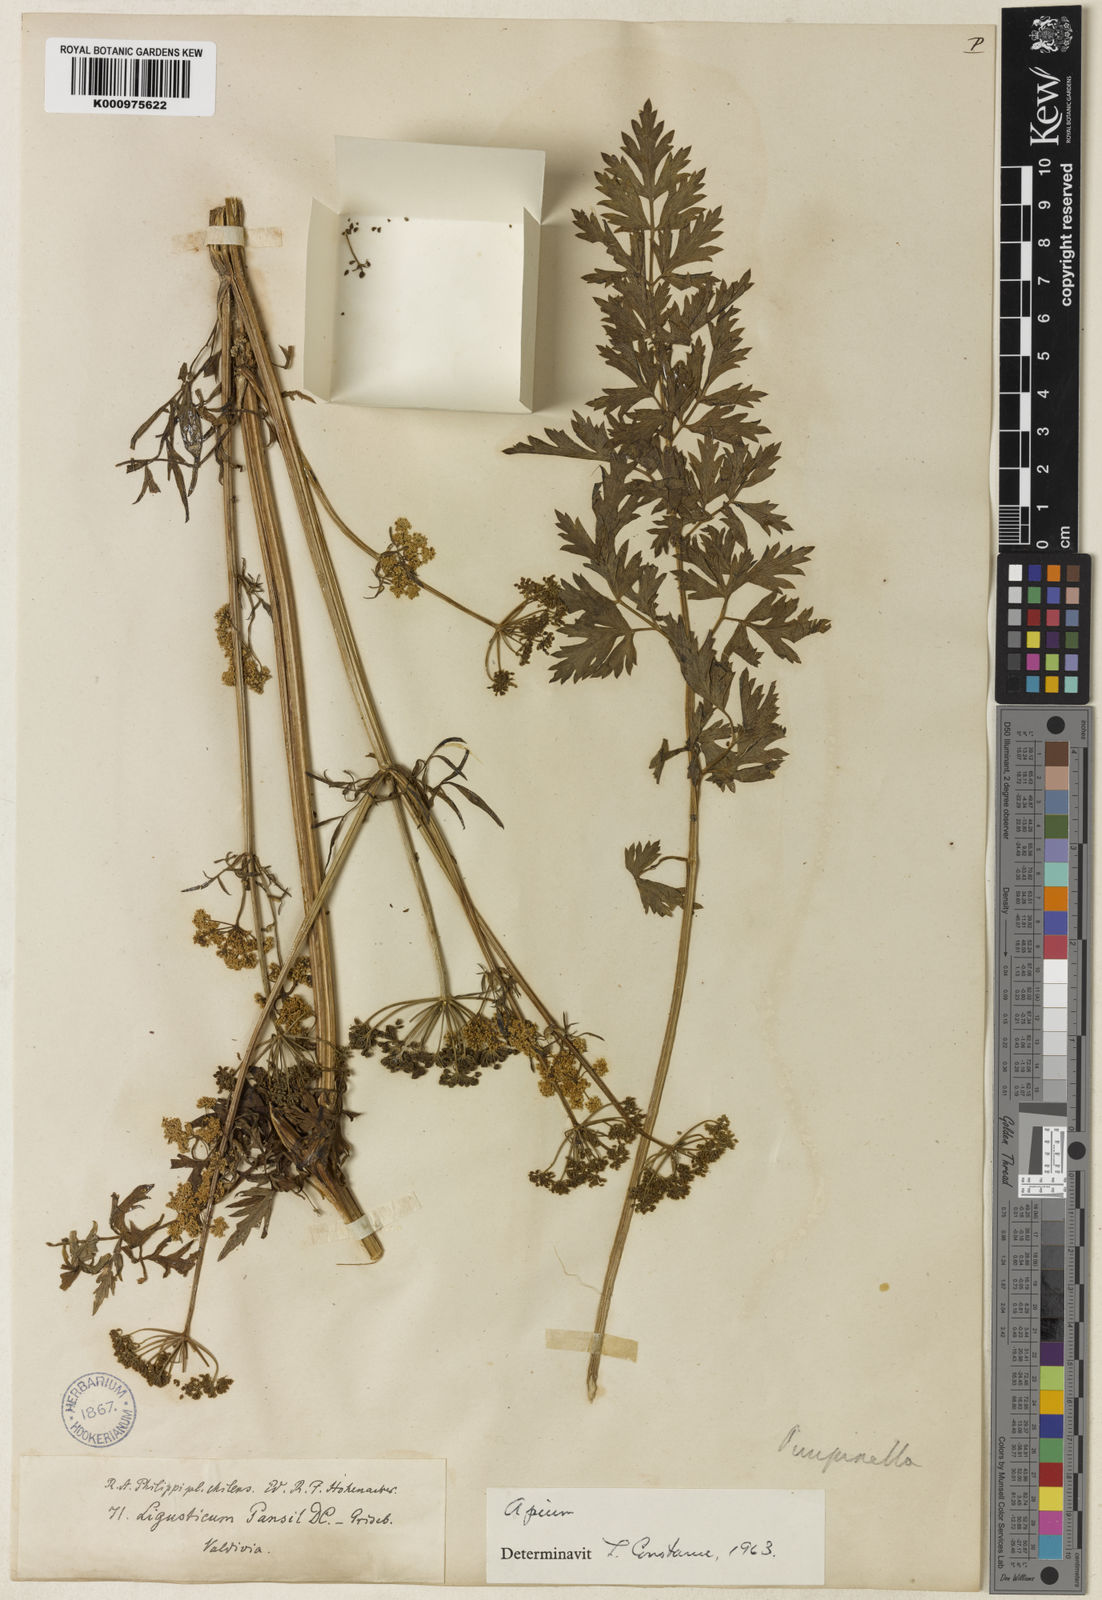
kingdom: Plantae
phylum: Tracheophyta
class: Magnoliopsida
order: Apiales
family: Apiaceae
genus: Apium
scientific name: Apium panul
